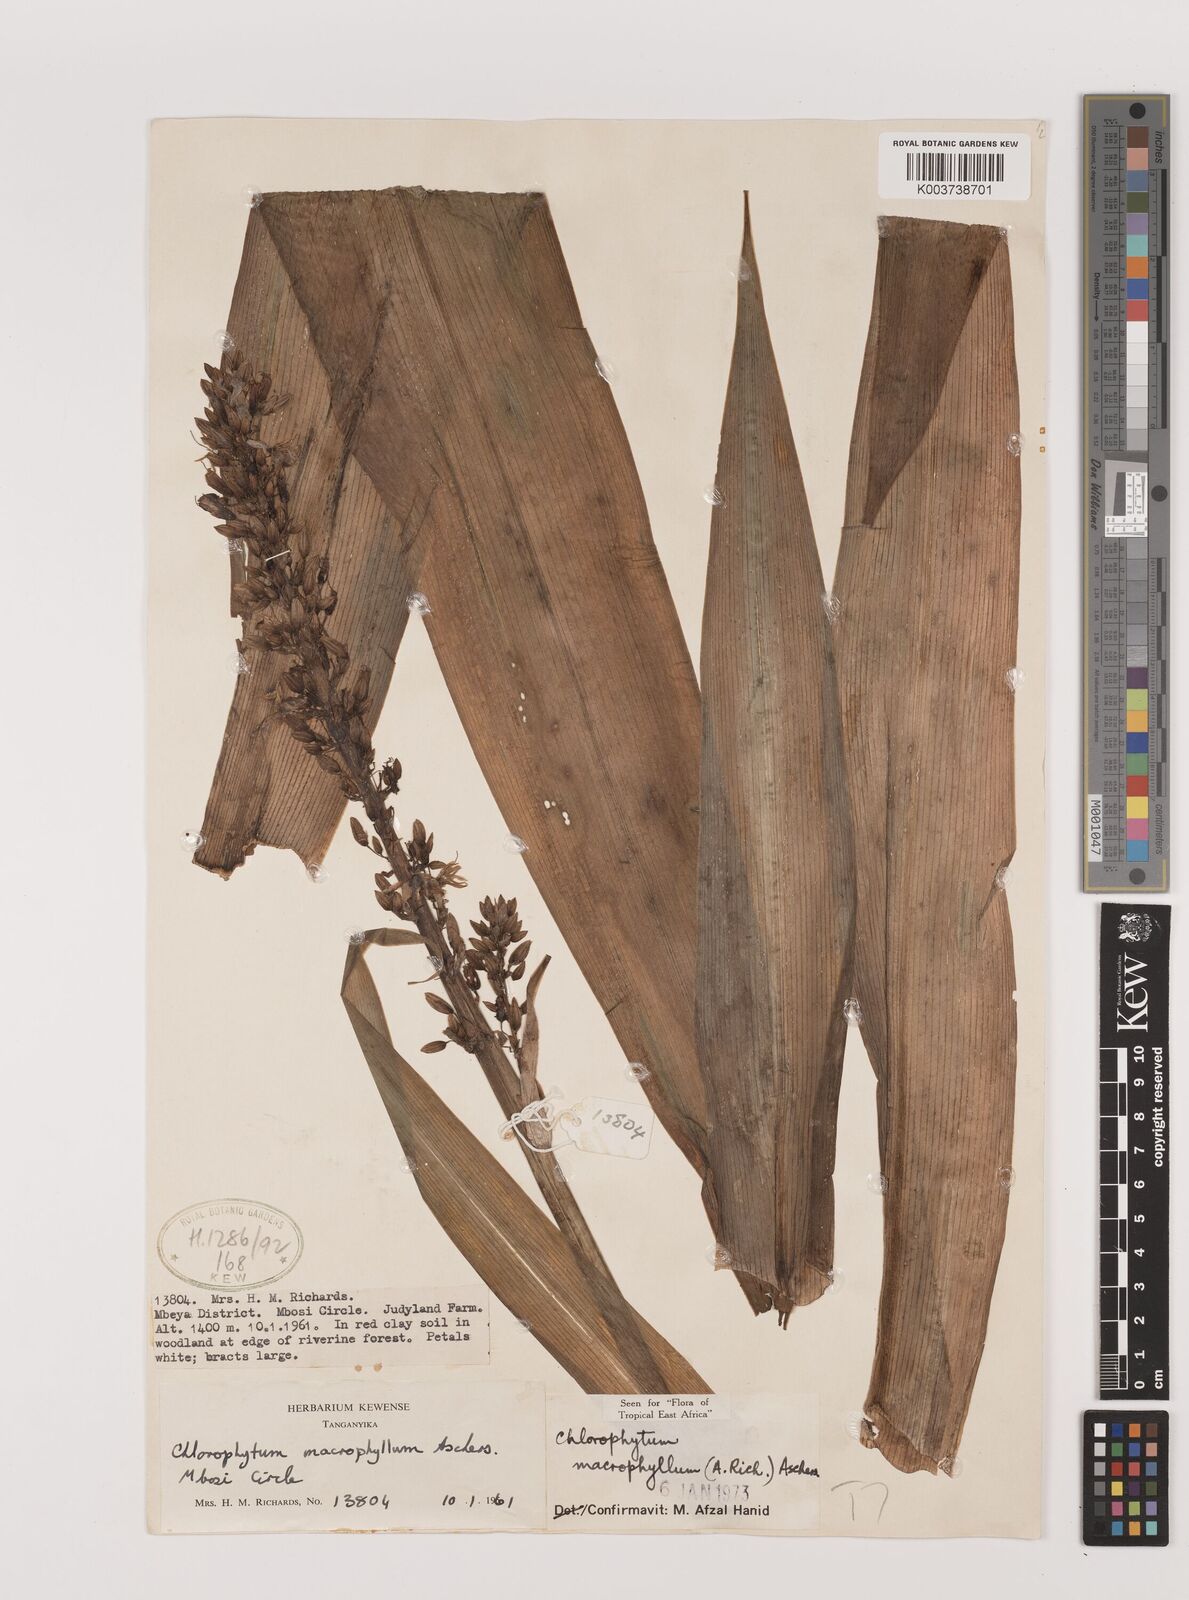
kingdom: Plantae
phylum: Tracheophyta
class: Liliopsida
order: Asparagales
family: Asparagaceae
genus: Chlorophytum
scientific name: Chlorophytum macrophyllum
